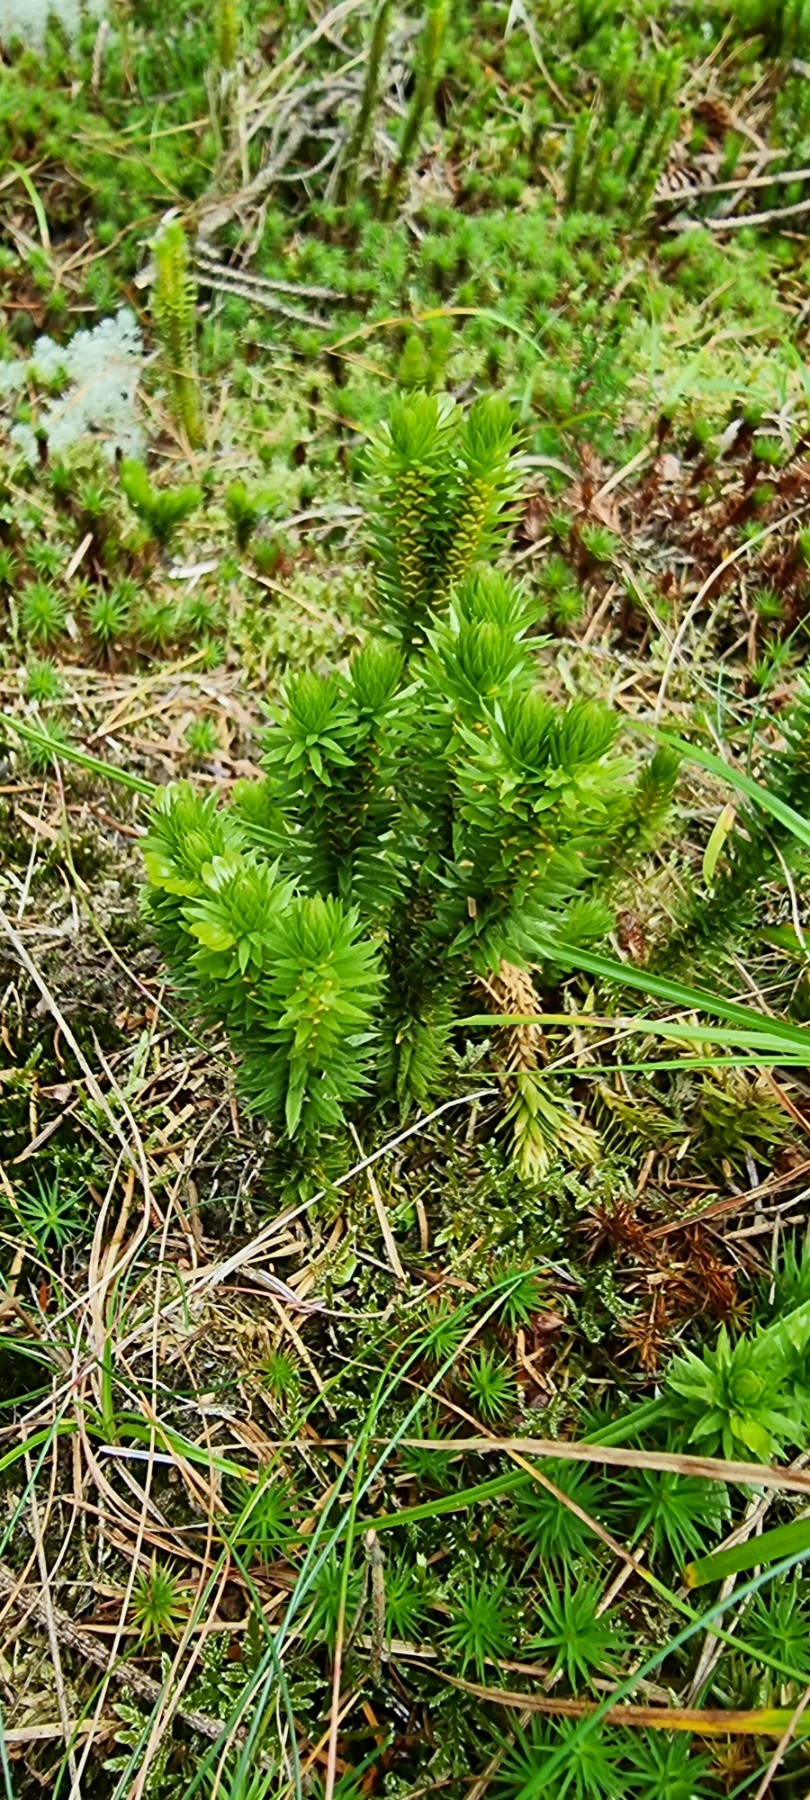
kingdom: Plantae
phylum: Tracheophyta
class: Lycopodiopsida
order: Lycopodiales
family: Lycopodiaceae
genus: Huperzia
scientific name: Huperzia selago
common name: Otteradet ulvefod
